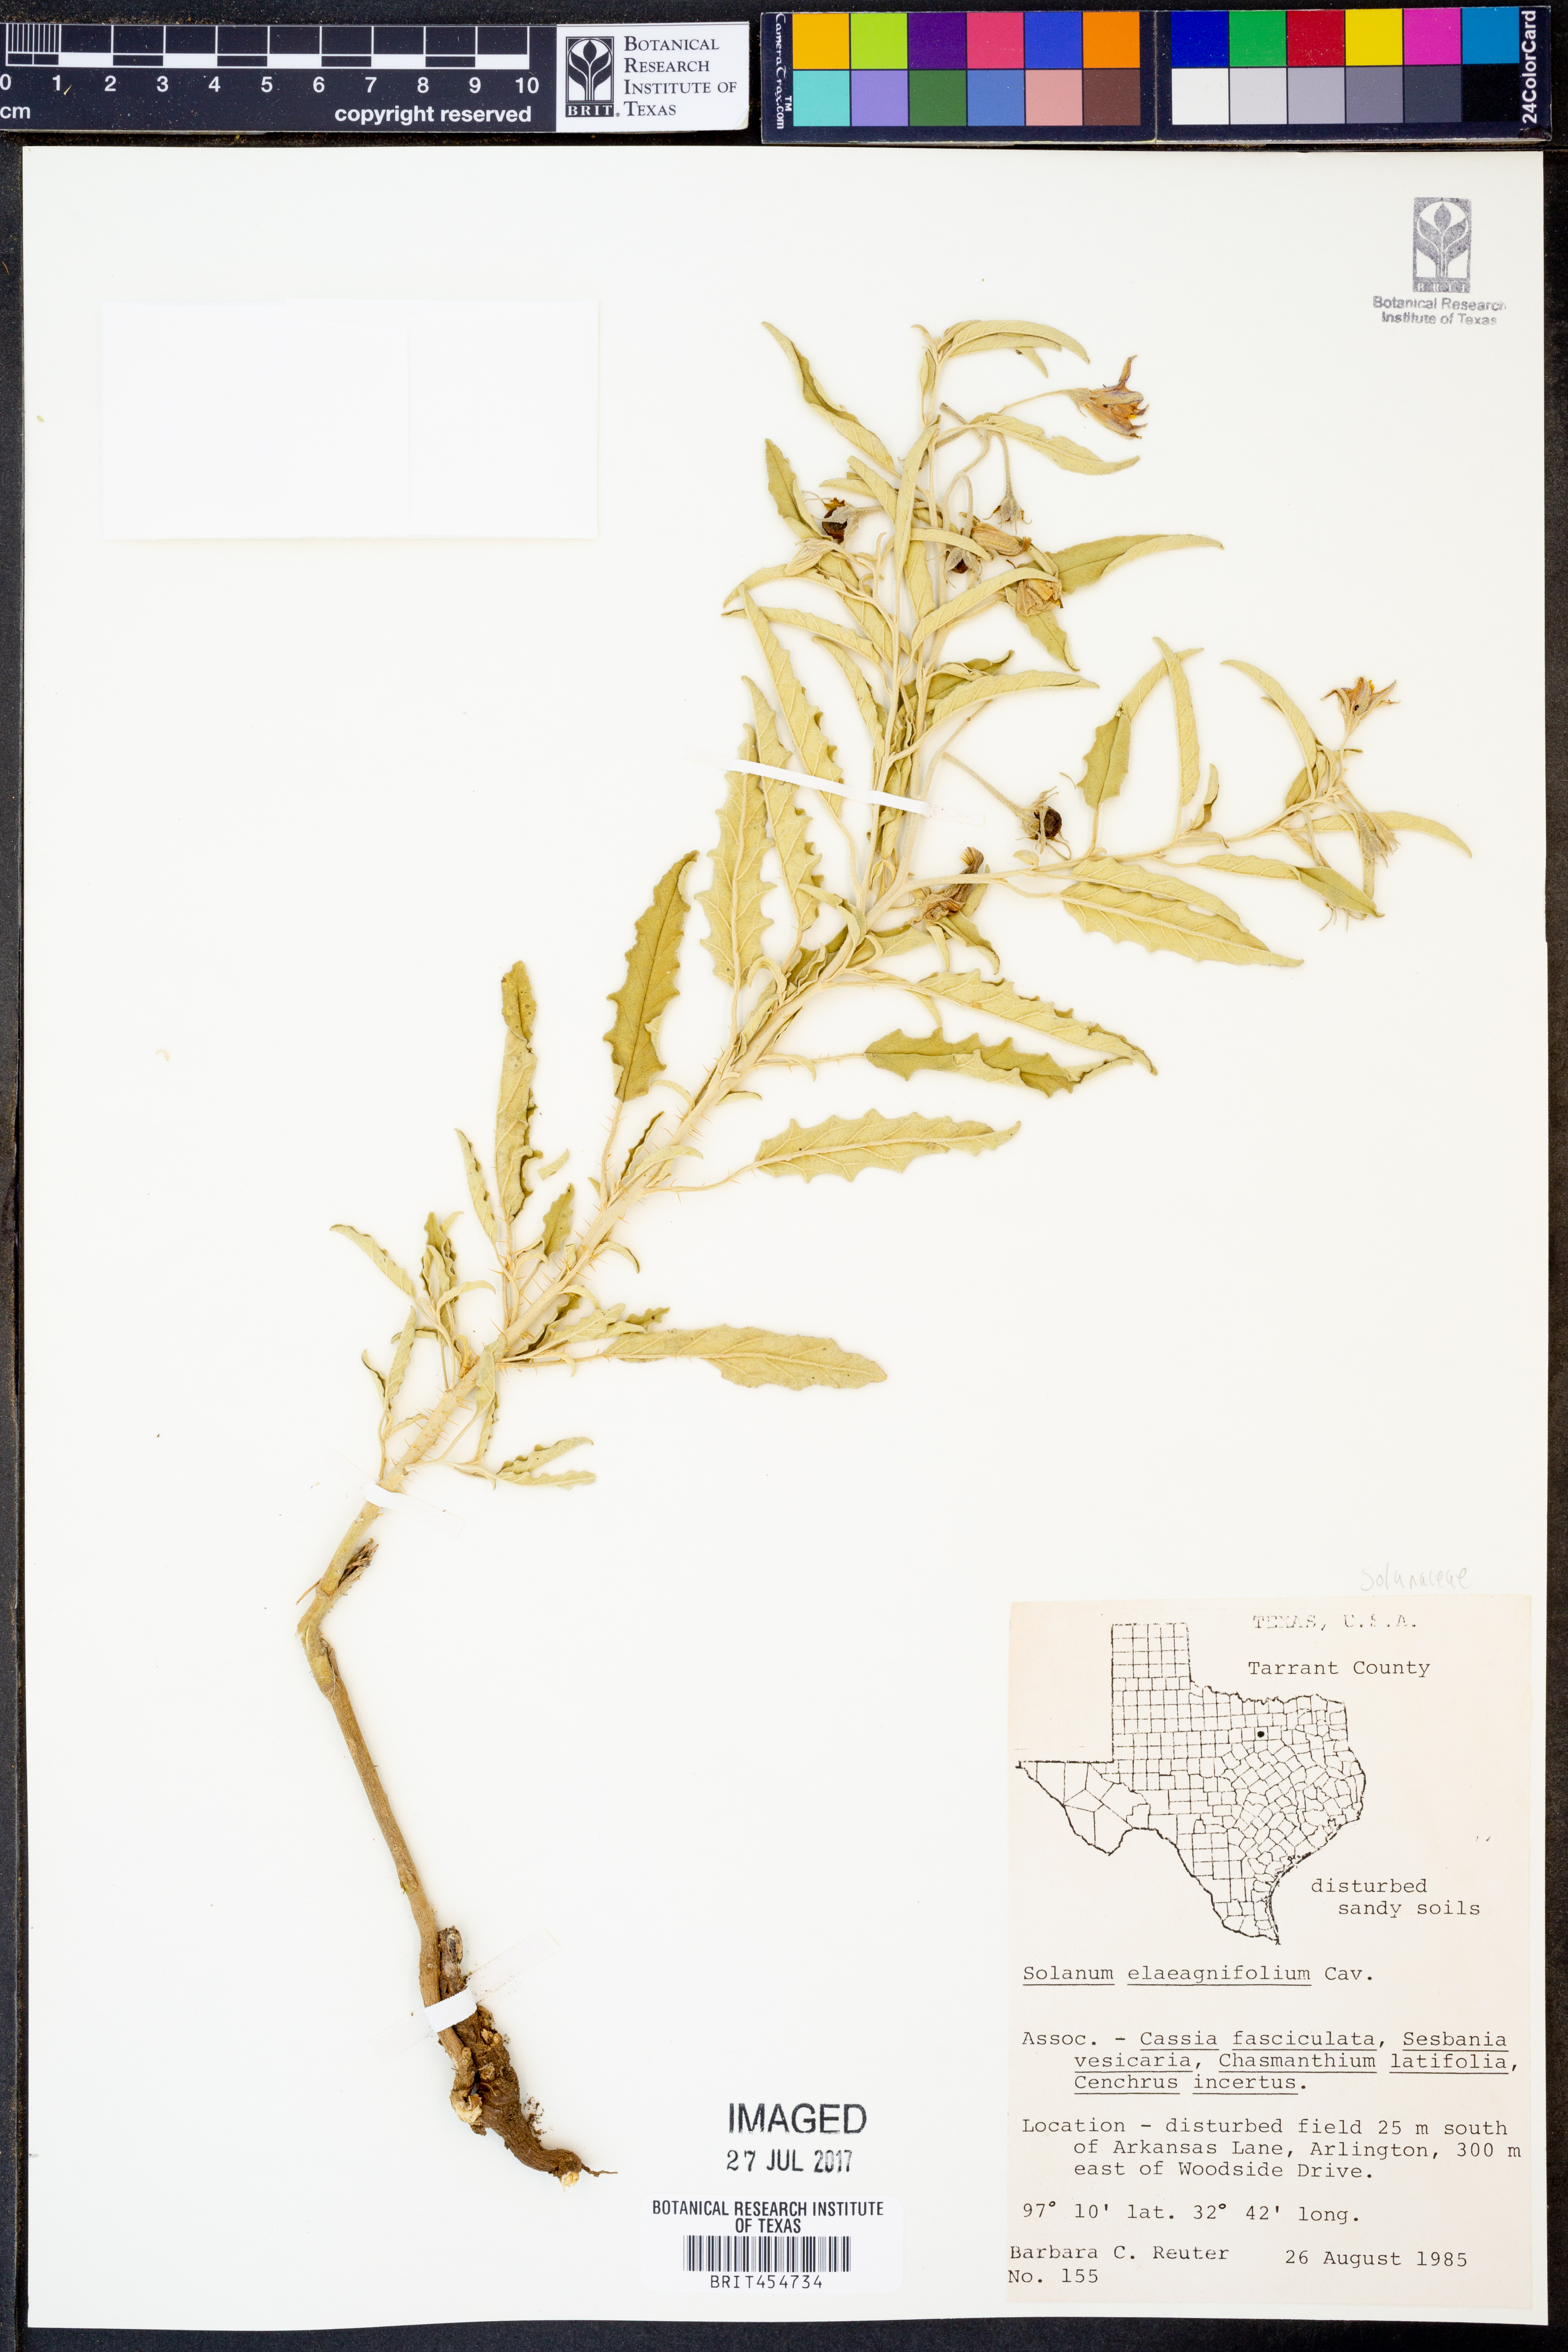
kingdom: Plantae
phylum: Tracheophyta
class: Magnoliopsida
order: Solanales
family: Solanaceae
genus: Solanum
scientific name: Solanum elaeagnifolium
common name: Silverleaf nightshade
